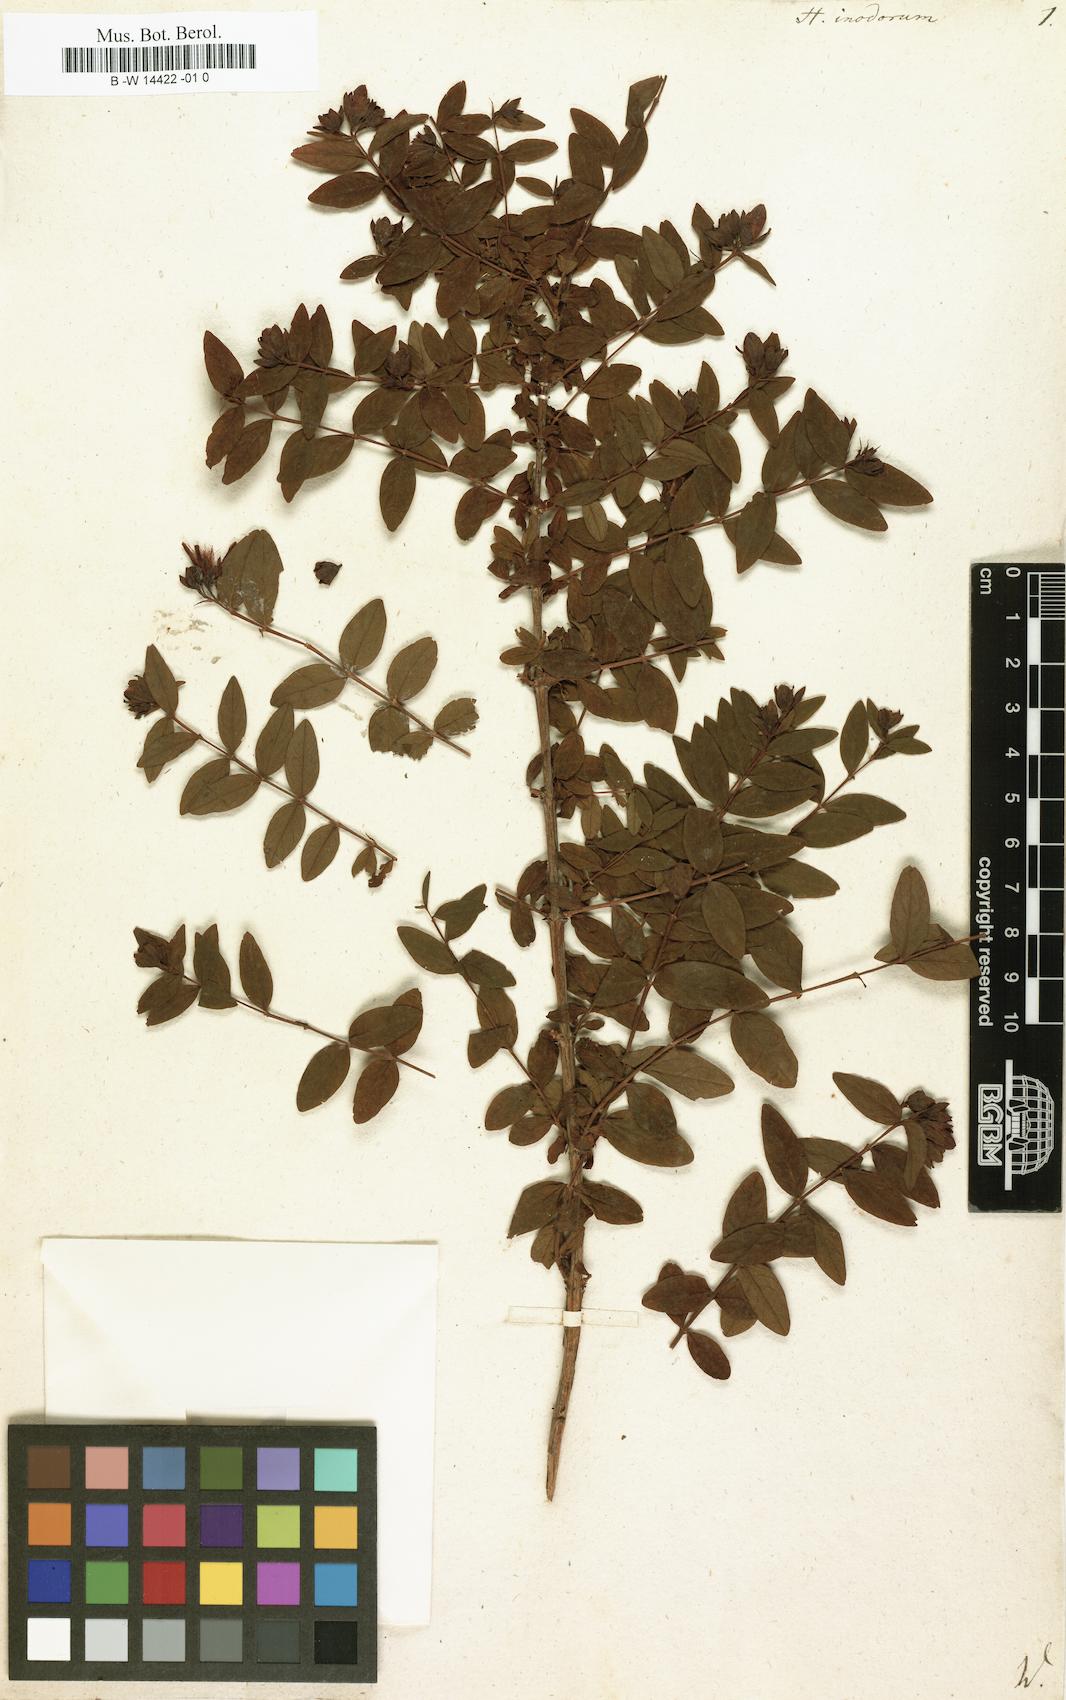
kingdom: Plantae
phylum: Tracheophyta
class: Magnoliopsida
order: Malpighiales
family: Hypericaceae
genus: Hypericum
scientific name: Hypericum inodorum
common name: Tall tutsan
